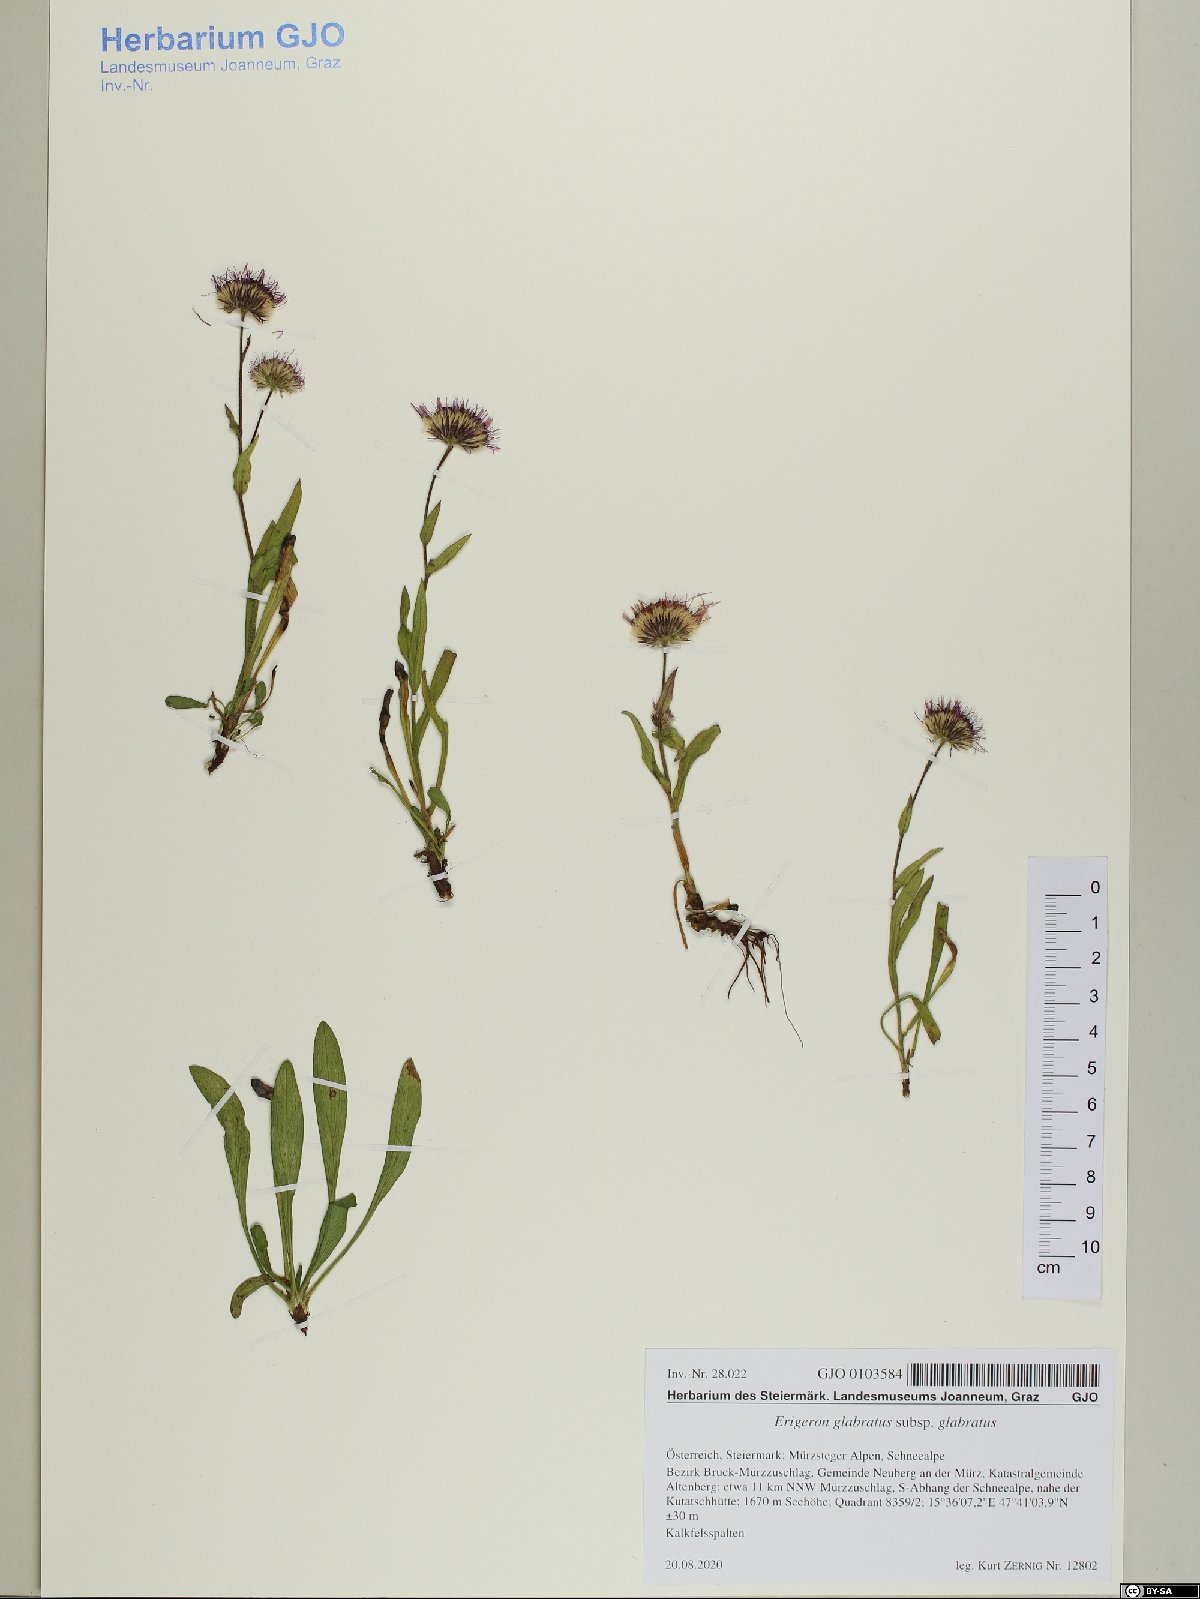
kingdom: Plantae
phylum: Tracheophyta
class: Magnoliopsida
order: Asterales
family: Asteraceae
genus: Erigeron
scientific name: Erigeron glabratus
